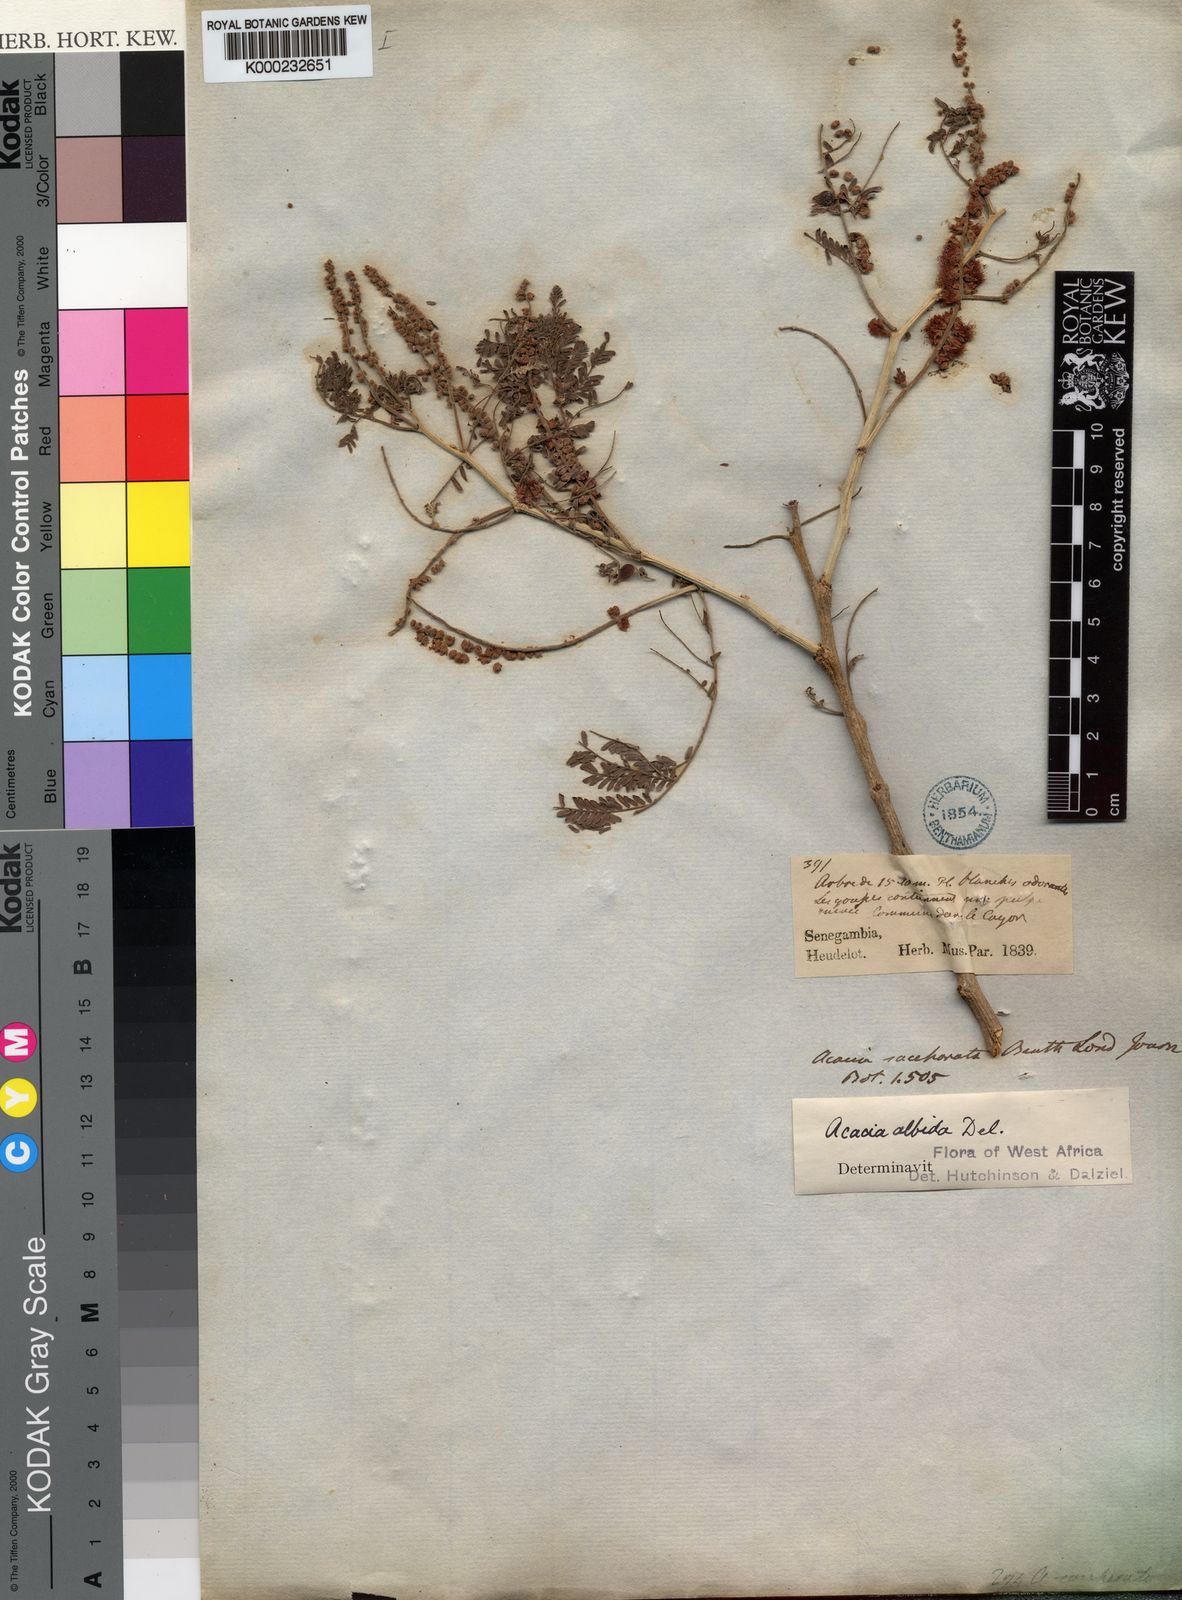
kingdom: Plantae
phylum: Tracheophyta
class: Magnoliopsida
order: Fabales
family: Fabaceae
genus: Faidherbia
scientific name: Faidherbia albida
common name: Anatree
